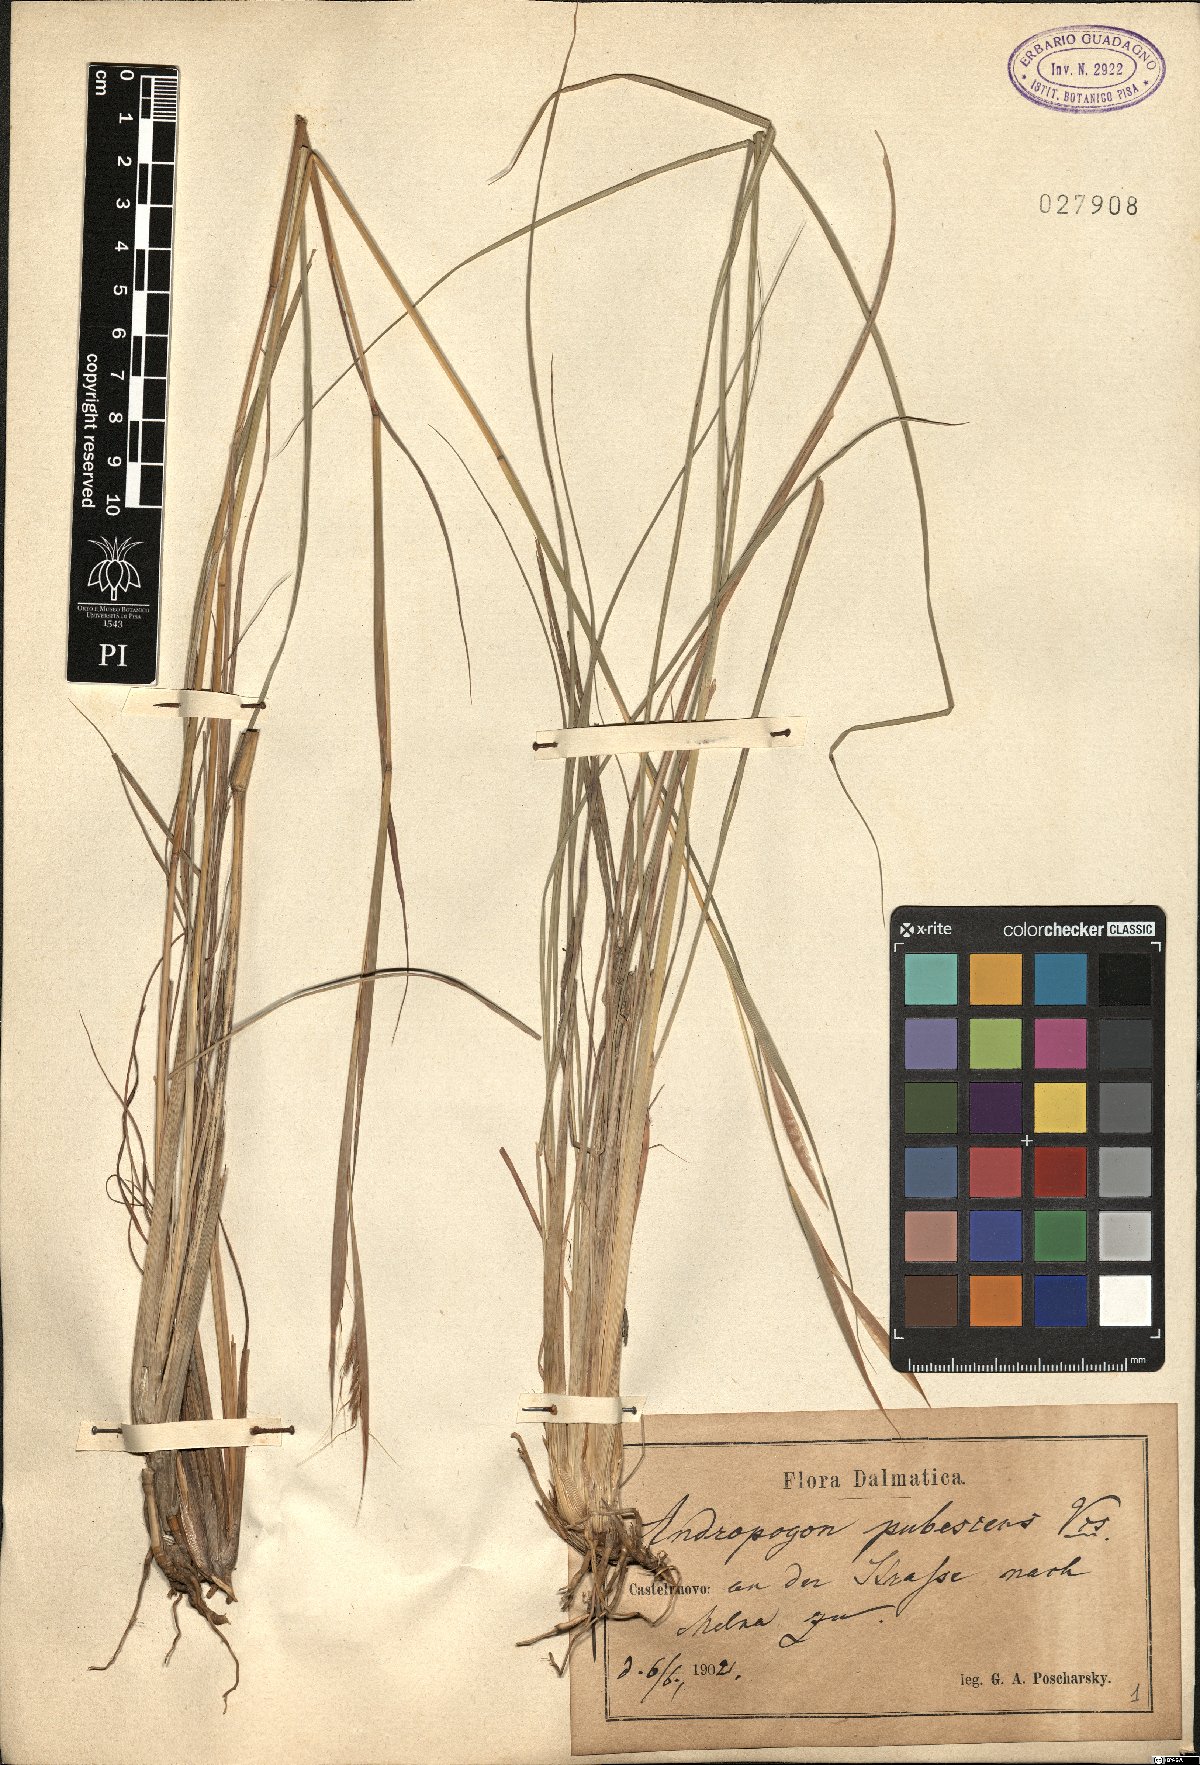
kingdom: Plantae
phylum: Tracheophyta
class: Liliopsida
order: Poales
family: Poaceae
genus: Hyparrhenia
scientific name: Hyparrhenia hirta
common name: Thatching grass
